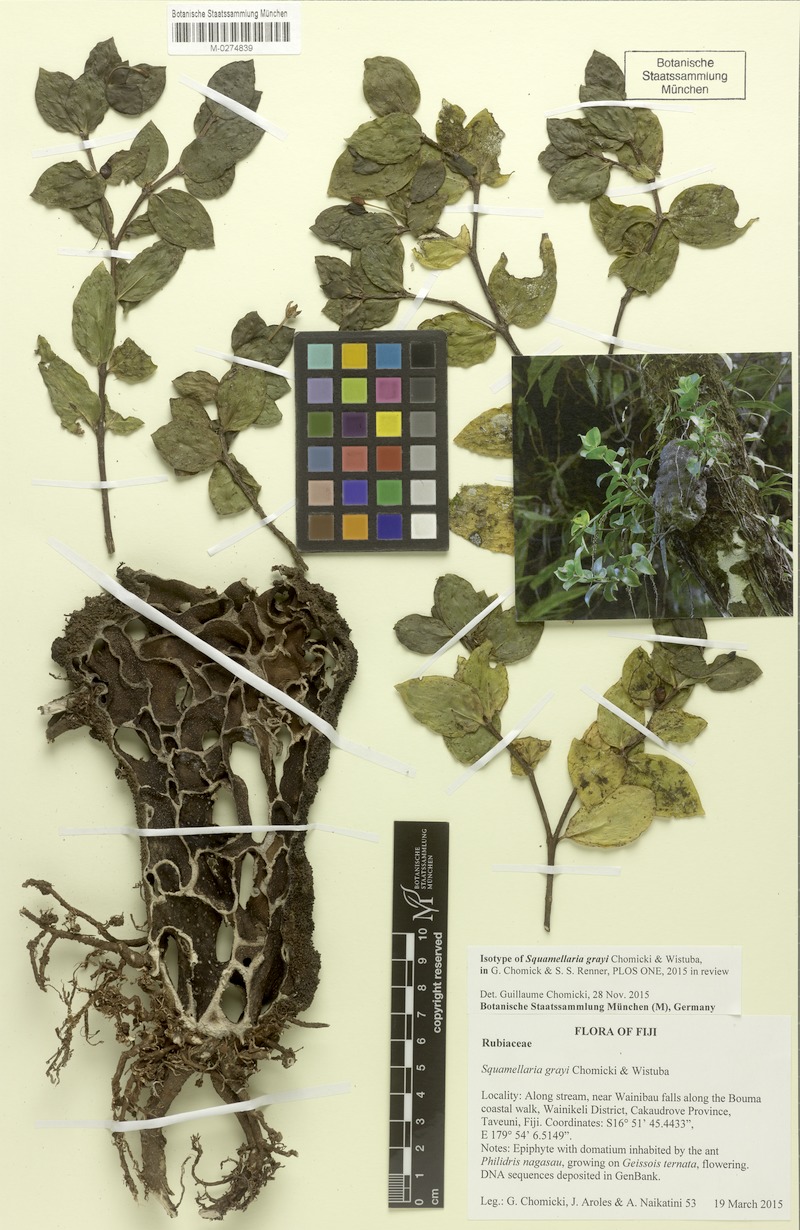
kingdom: Plantae
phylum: Tracheophyta
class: Magnoliopsida
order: Gentianales
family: Rubiaceae
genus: Squamellaria
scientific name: Squamellaria grayi
